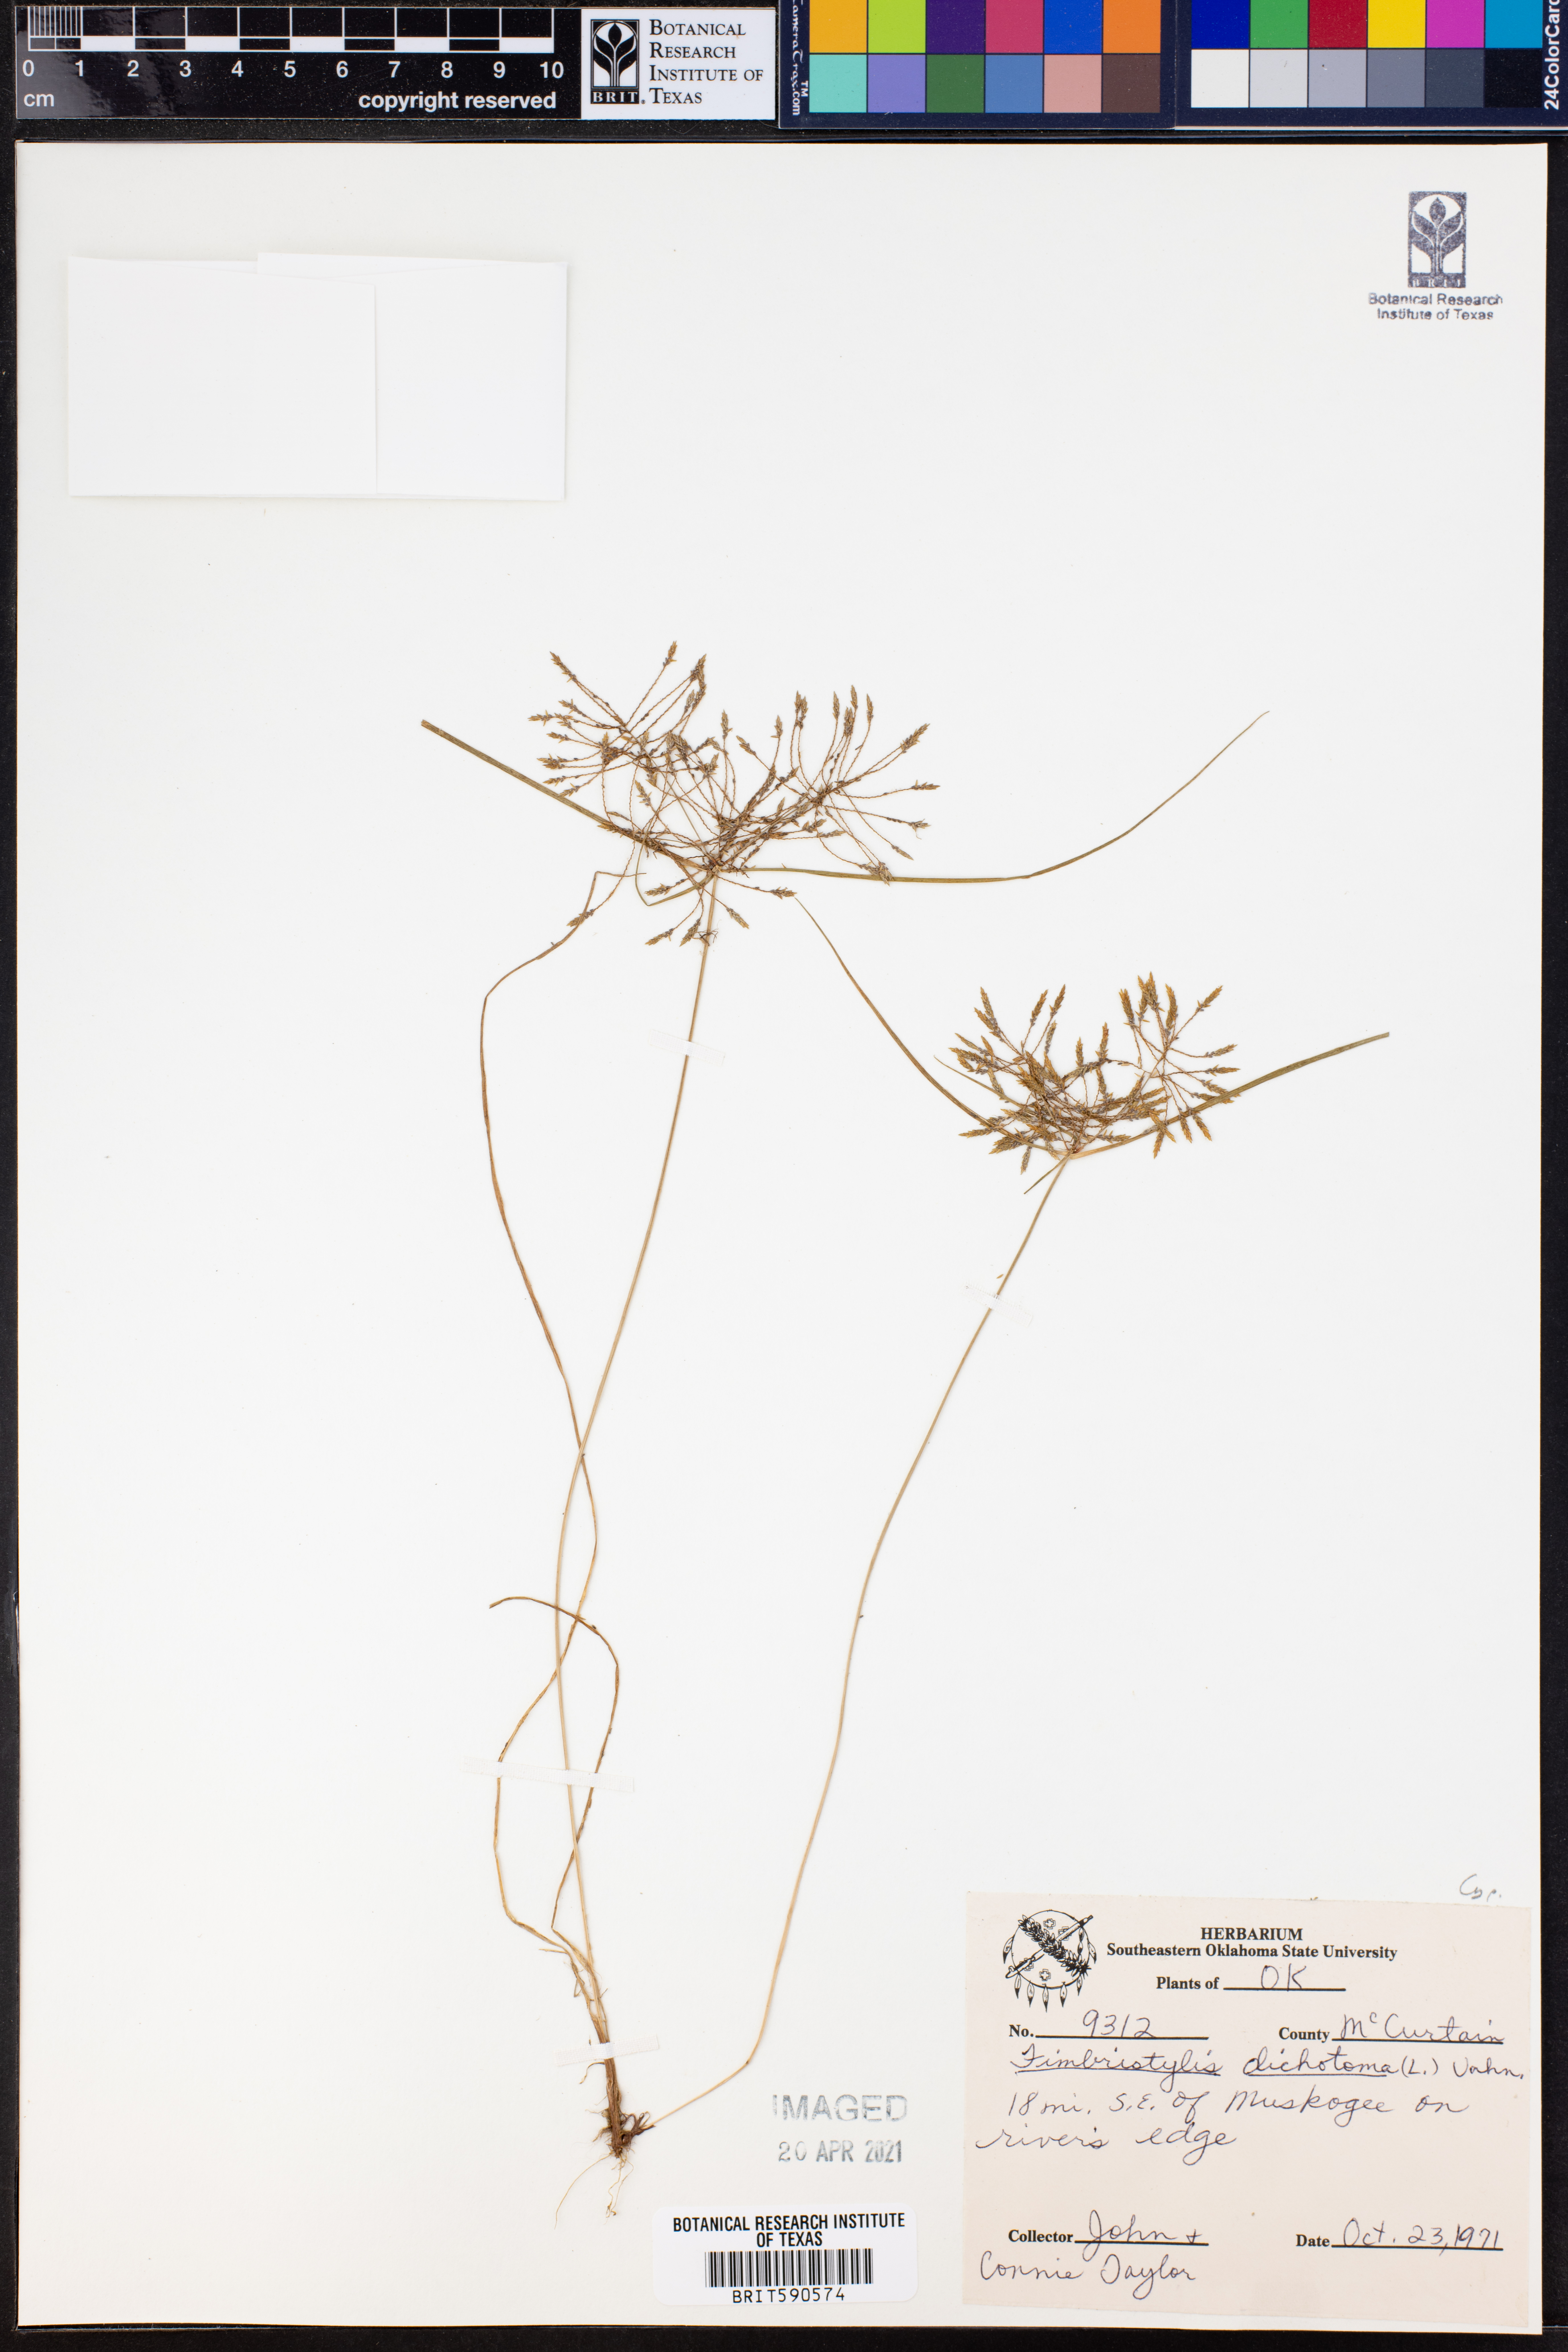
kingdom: Plantae
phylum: Tracheophyta
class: Liliopsida
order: Poales
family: Cyperaceae
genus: Fimbristylis
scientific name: Fimbristylis dichotoma
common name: Forked fimbry
